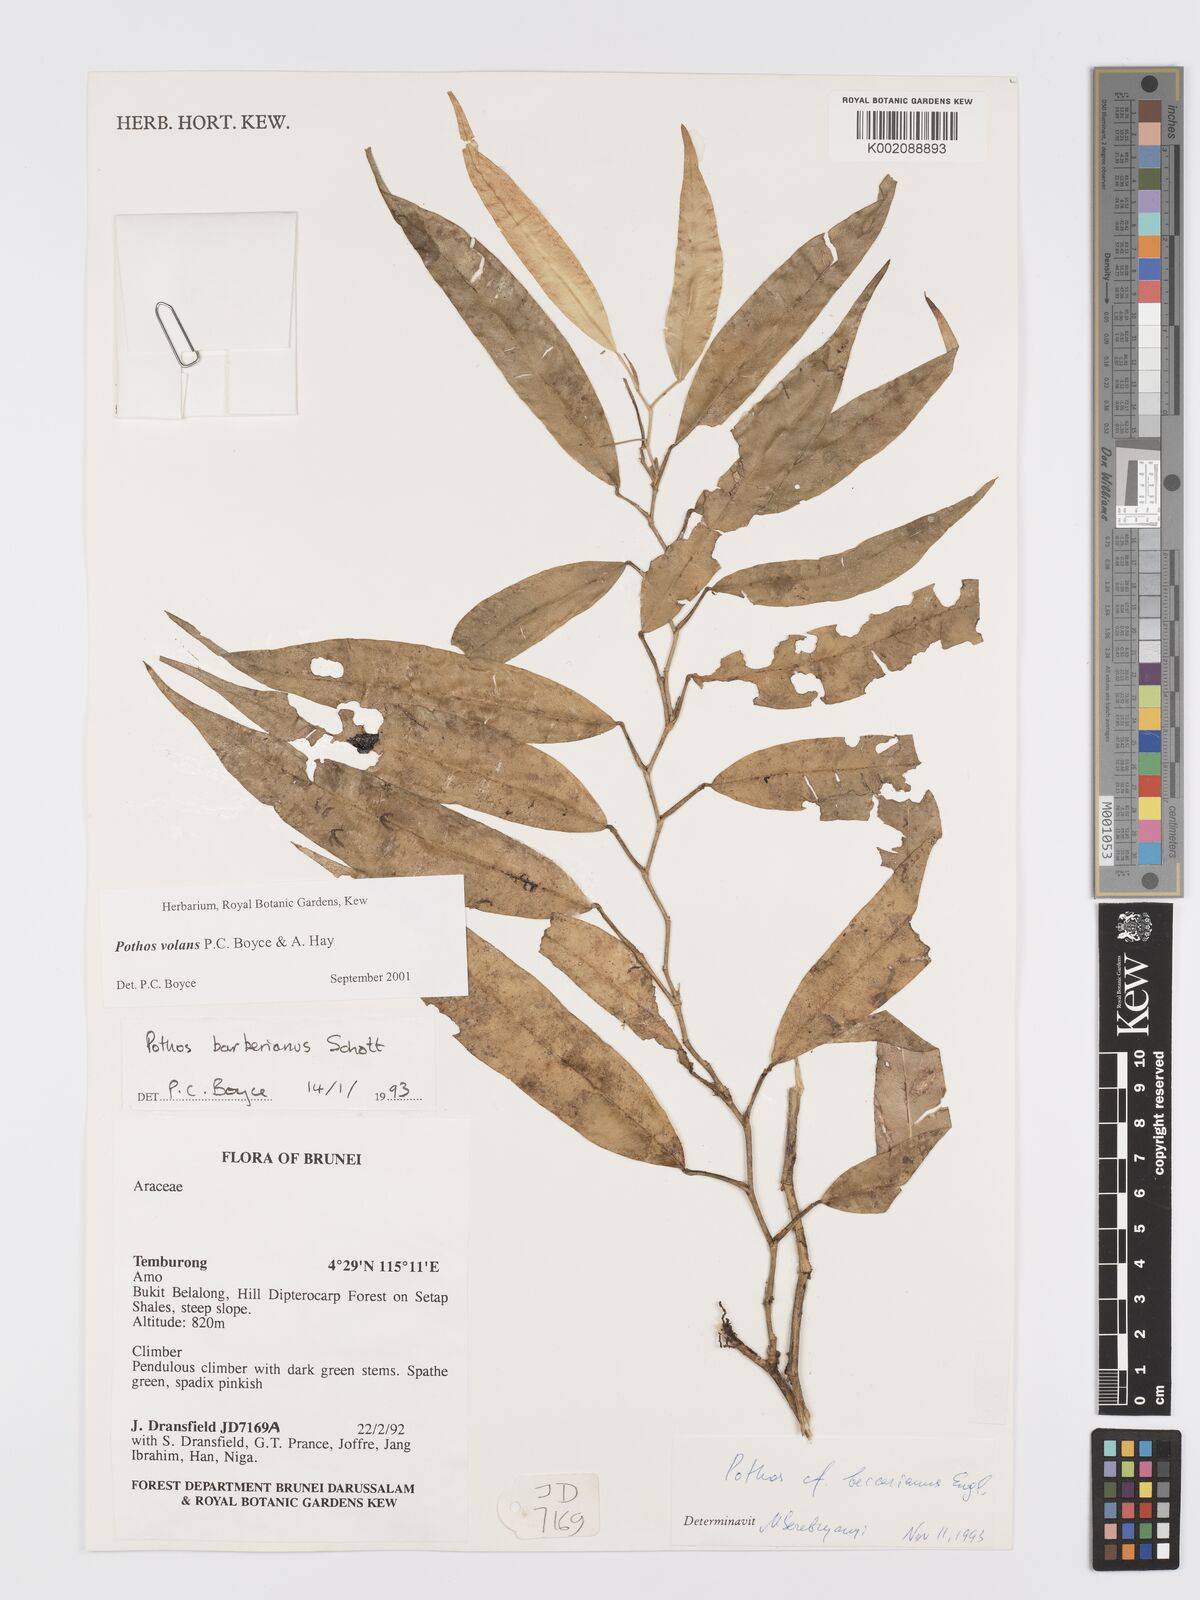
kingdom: Plantae
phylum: Tracheophyta
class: Liliopsida
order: Alismatales
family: Araceae
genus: Pothos
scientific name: Pothos volans
